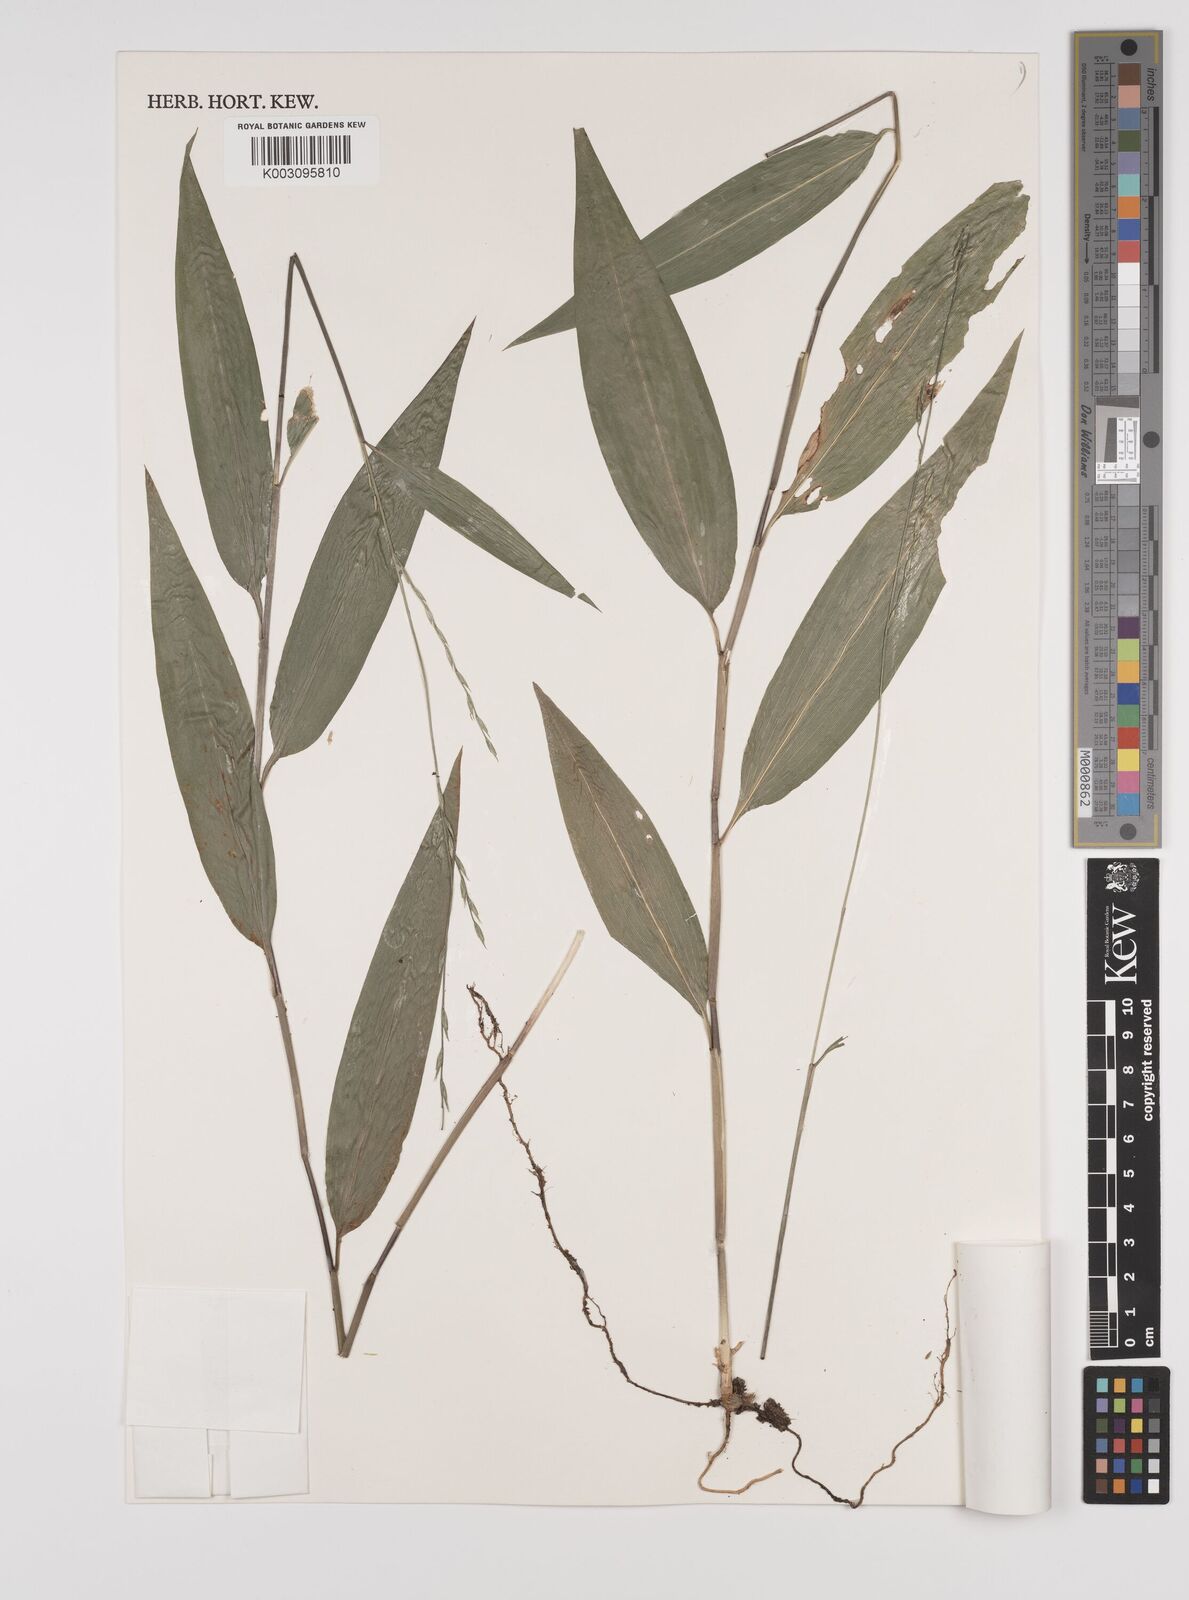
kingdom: Plantae
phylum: Tracheophyta
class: Liliopsida
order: Poales
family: Poaceae
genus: Lophatherum
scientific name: Lophatherum gracile
